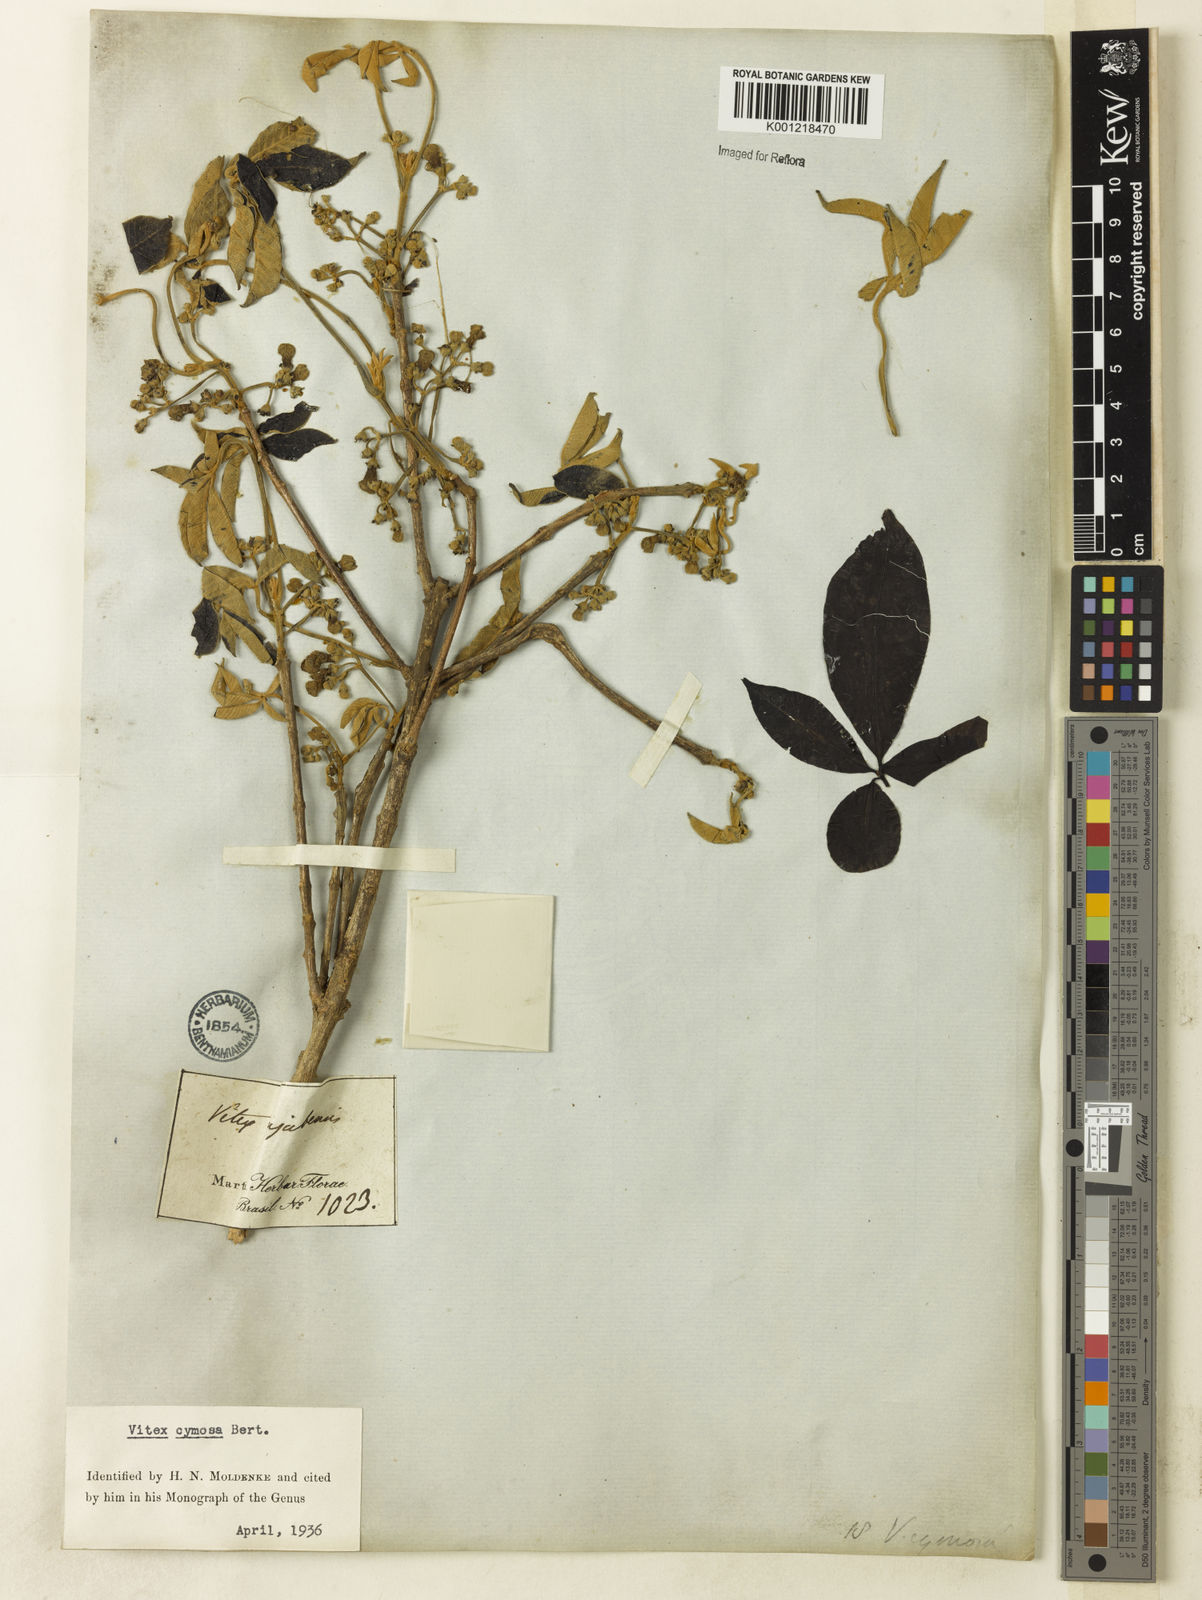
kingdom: Plantae
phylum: Tracheophyta
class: Magnoliopsida
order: Lamiales
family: Lamiaceae
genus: Vitex
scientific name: Vitex cymosa
